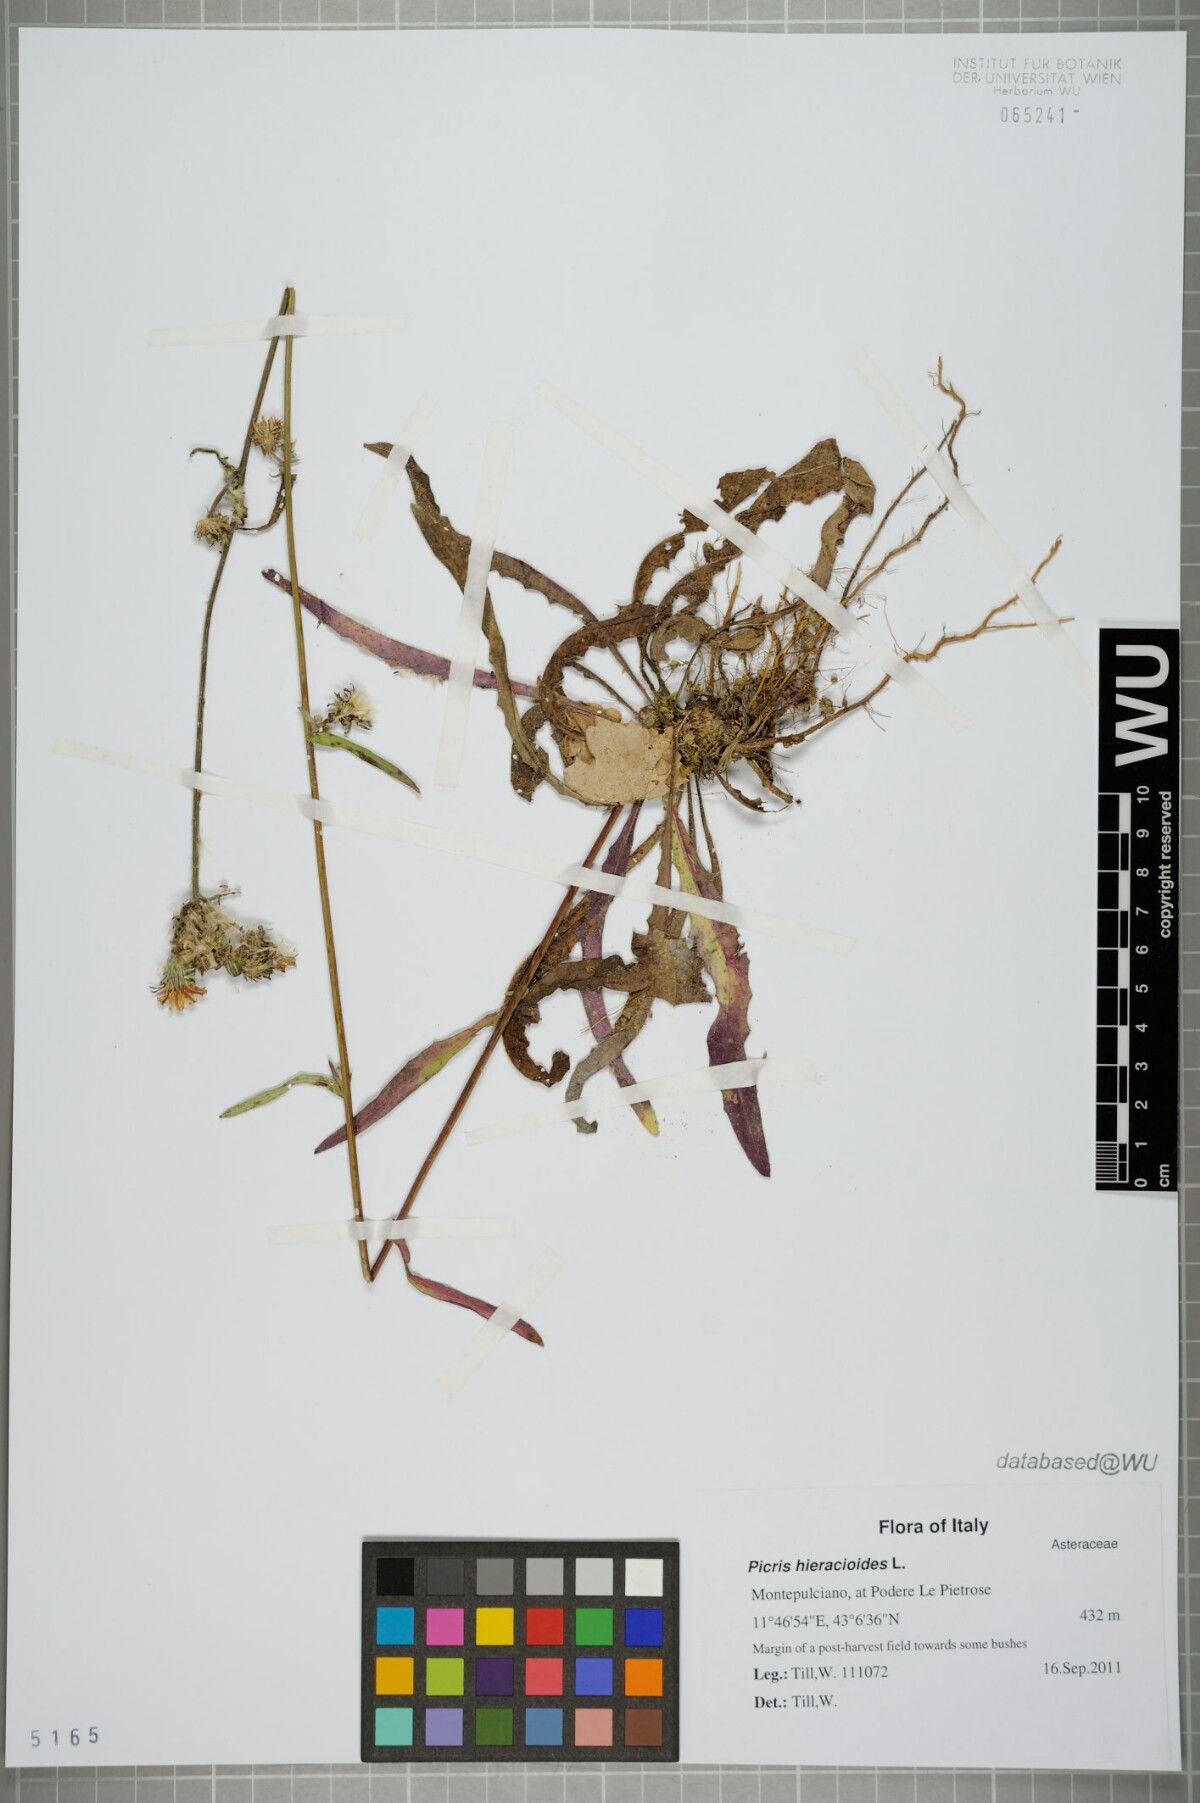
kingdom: Plantae
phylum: Tracheophyta
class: Magnoliopsida
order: Asterales
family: Asteraceae
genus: Picris
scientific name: Picris hieracioides
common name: Hawkweed oxtongue
